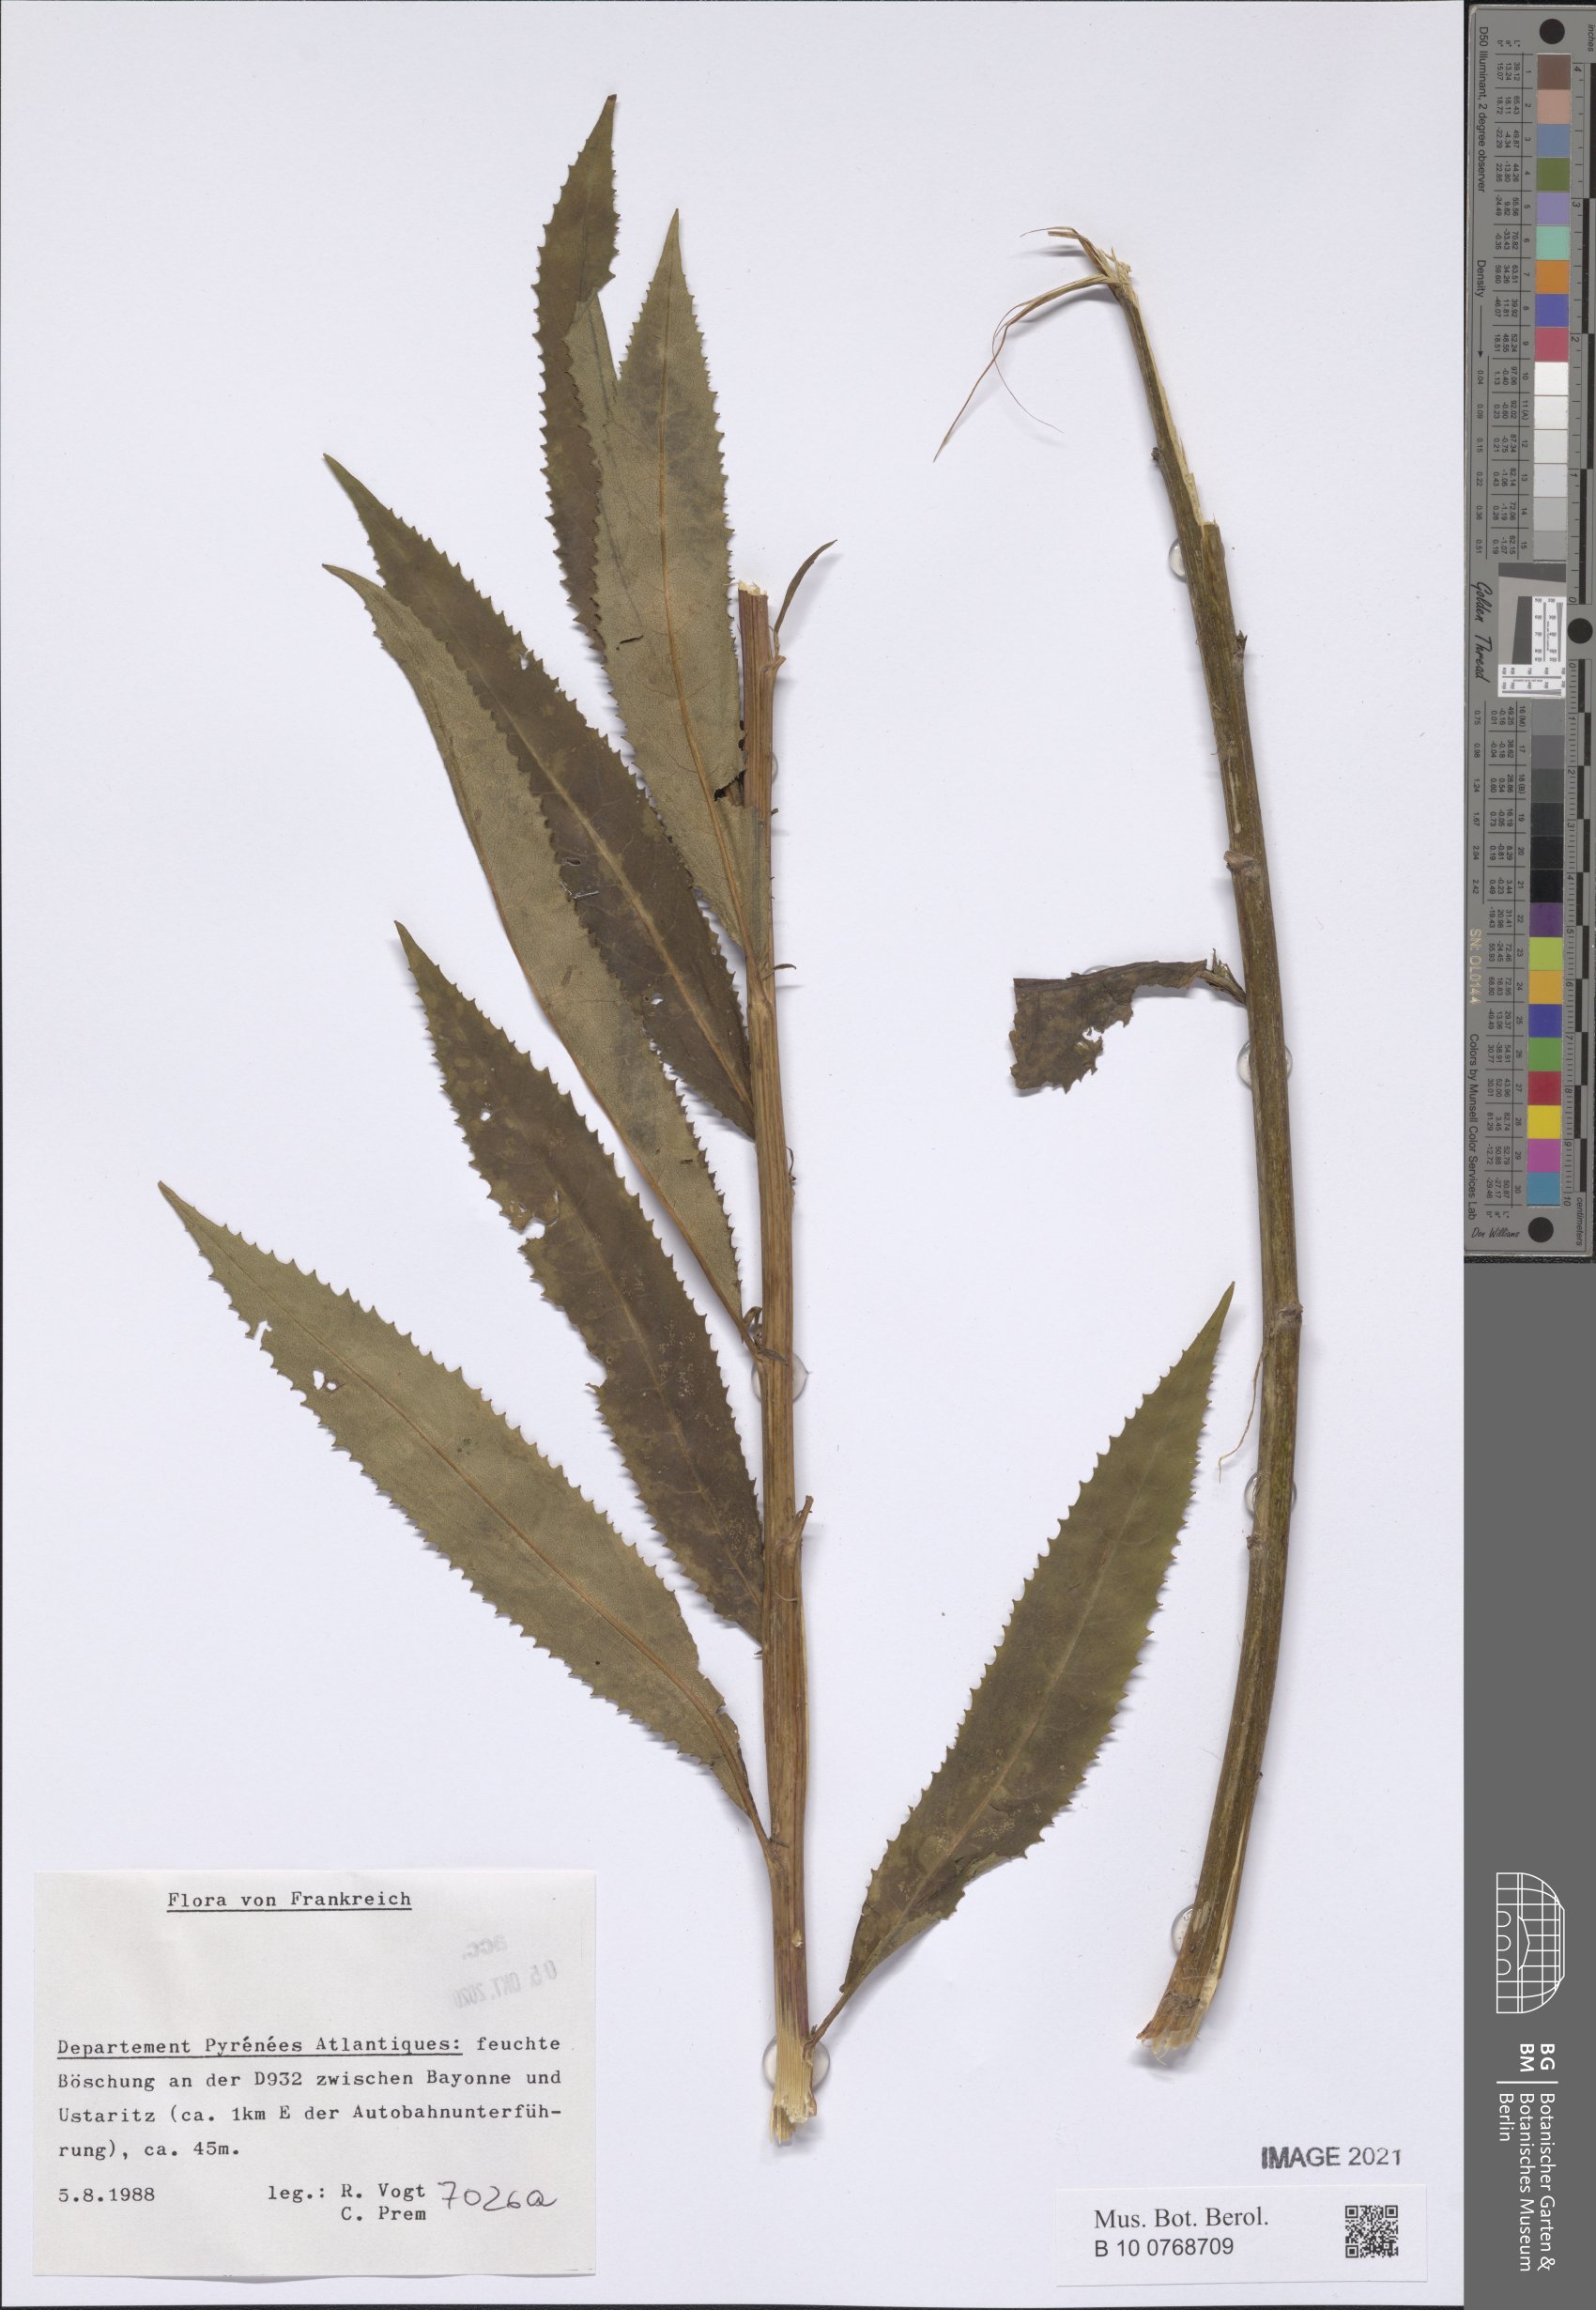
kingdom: Plantae
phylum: Tracheophyta
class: Magnoliopsida
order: Asterales
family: Asteraceae
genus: Senecio
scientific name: Senecio
